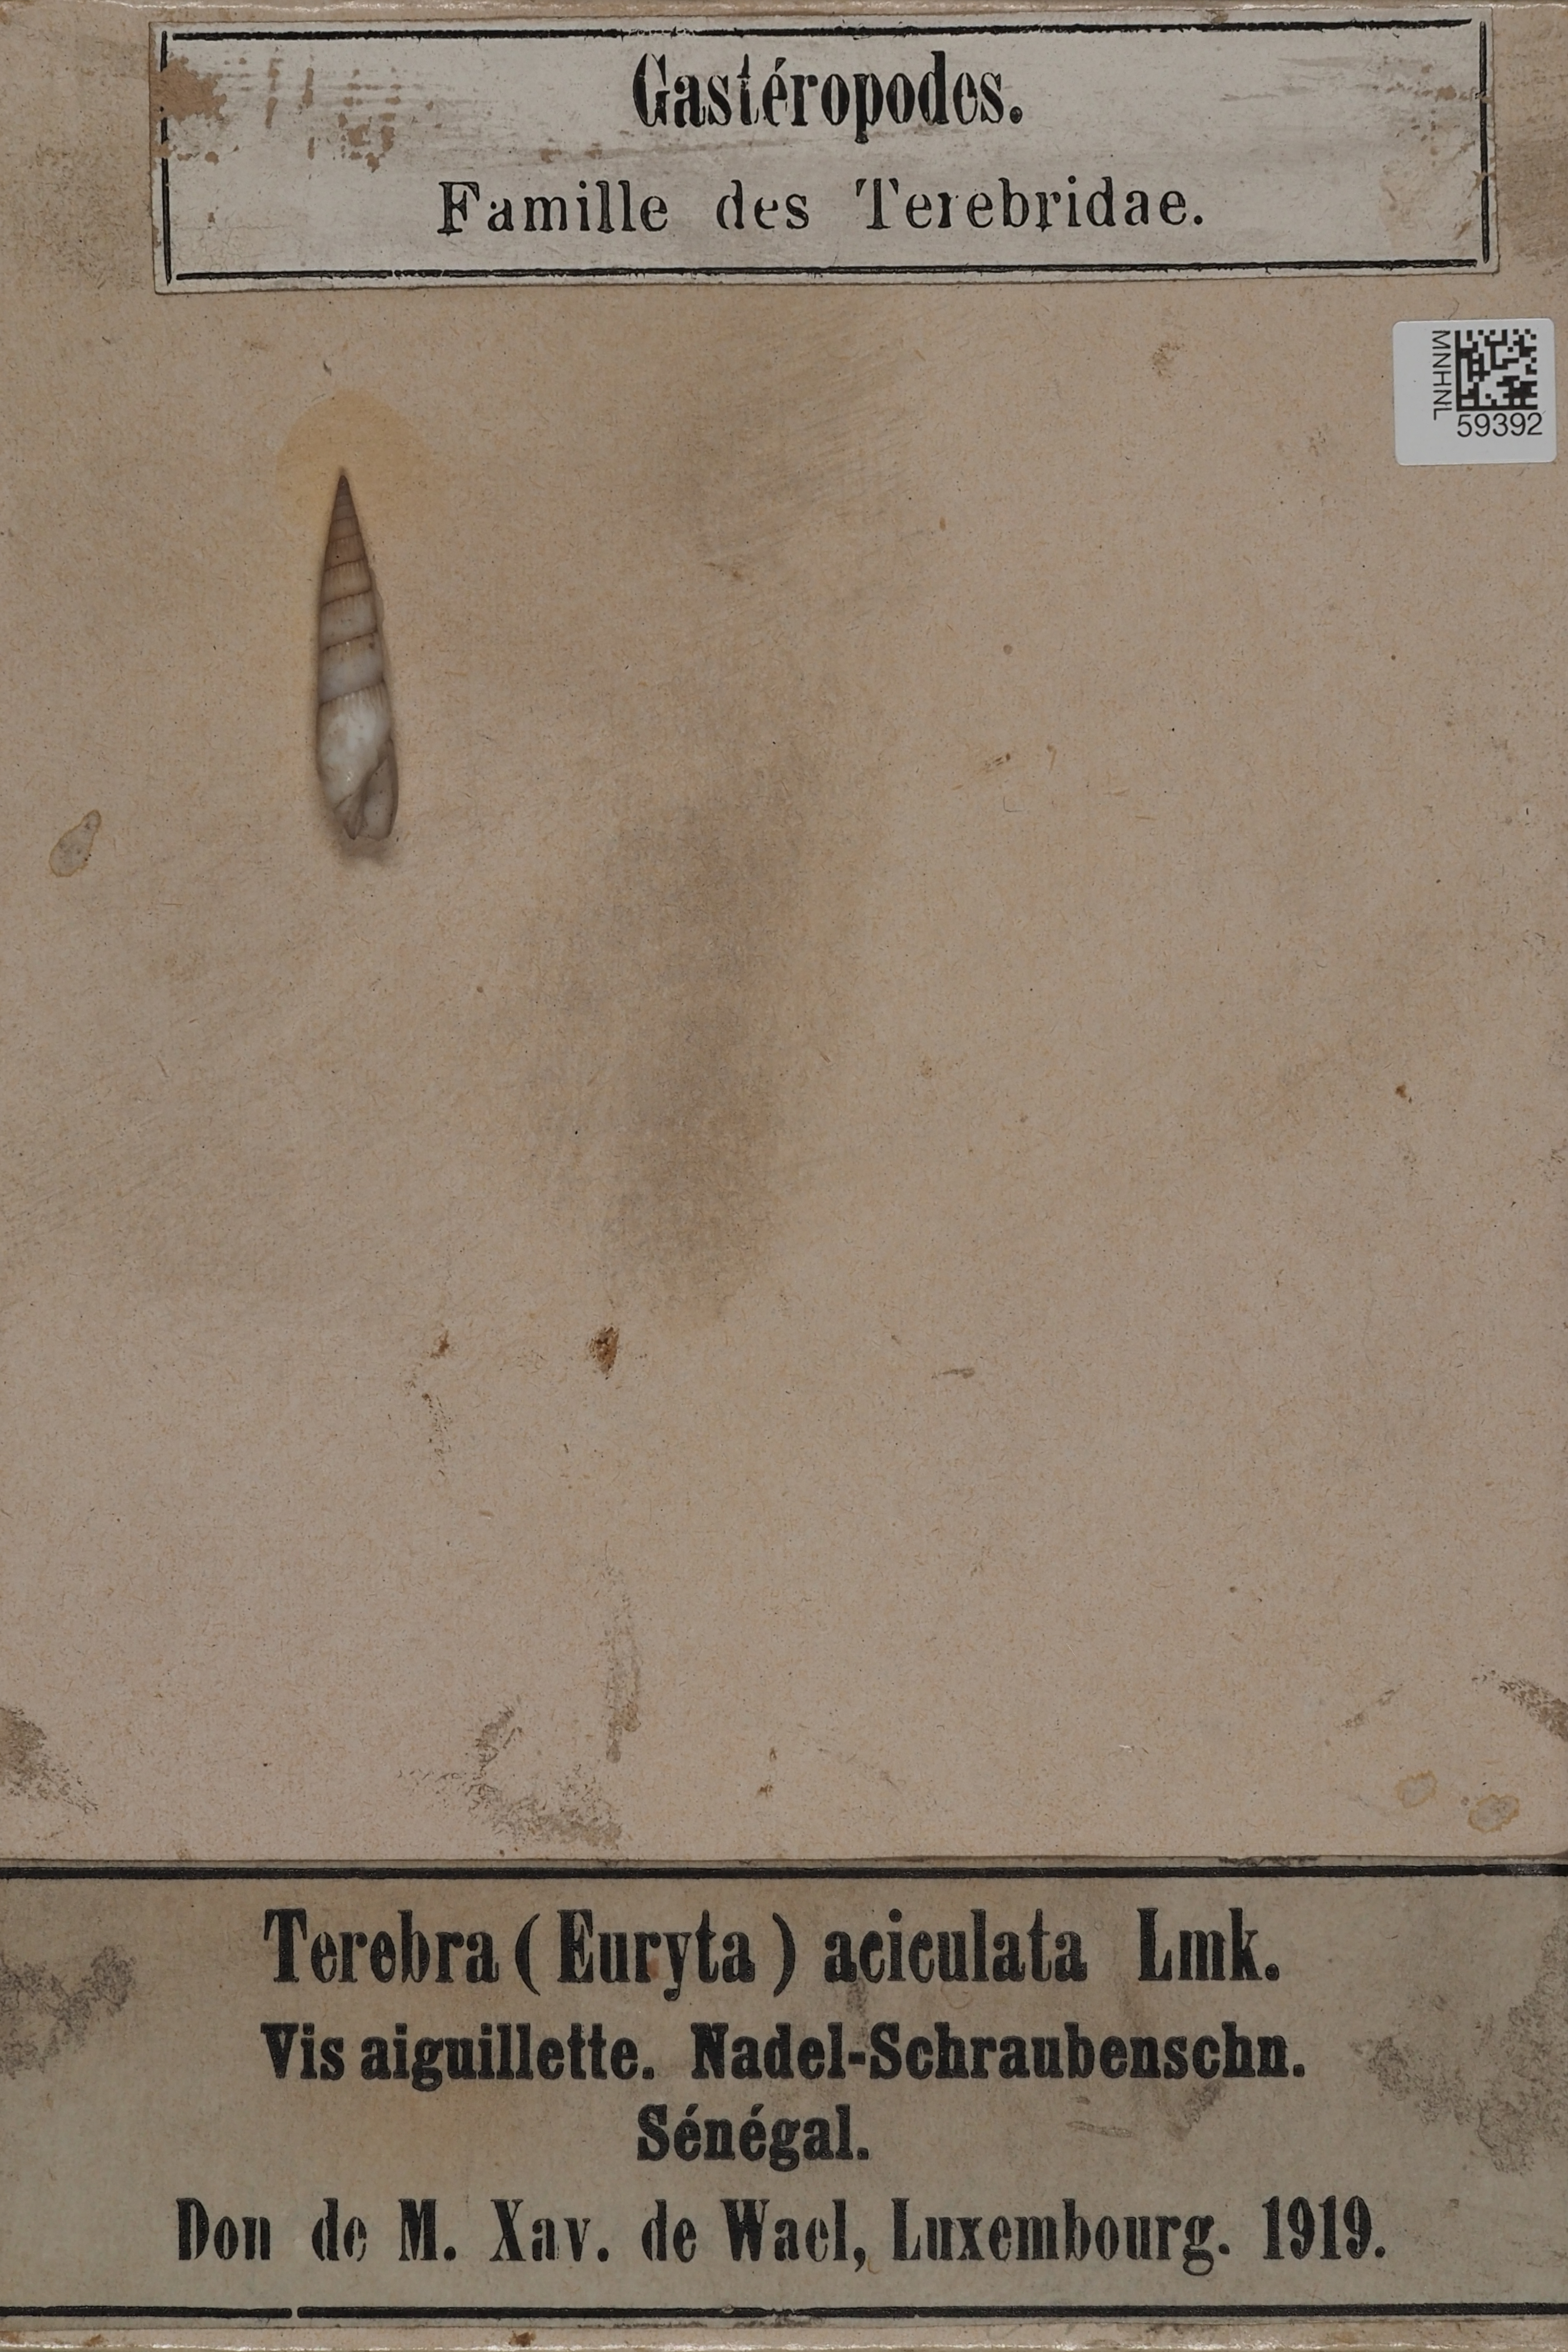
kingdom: Animalia
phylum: Mollusca
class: Gastropoda
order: Neogastropoda
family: Terebridae
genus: Terebra
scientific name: Terebra
